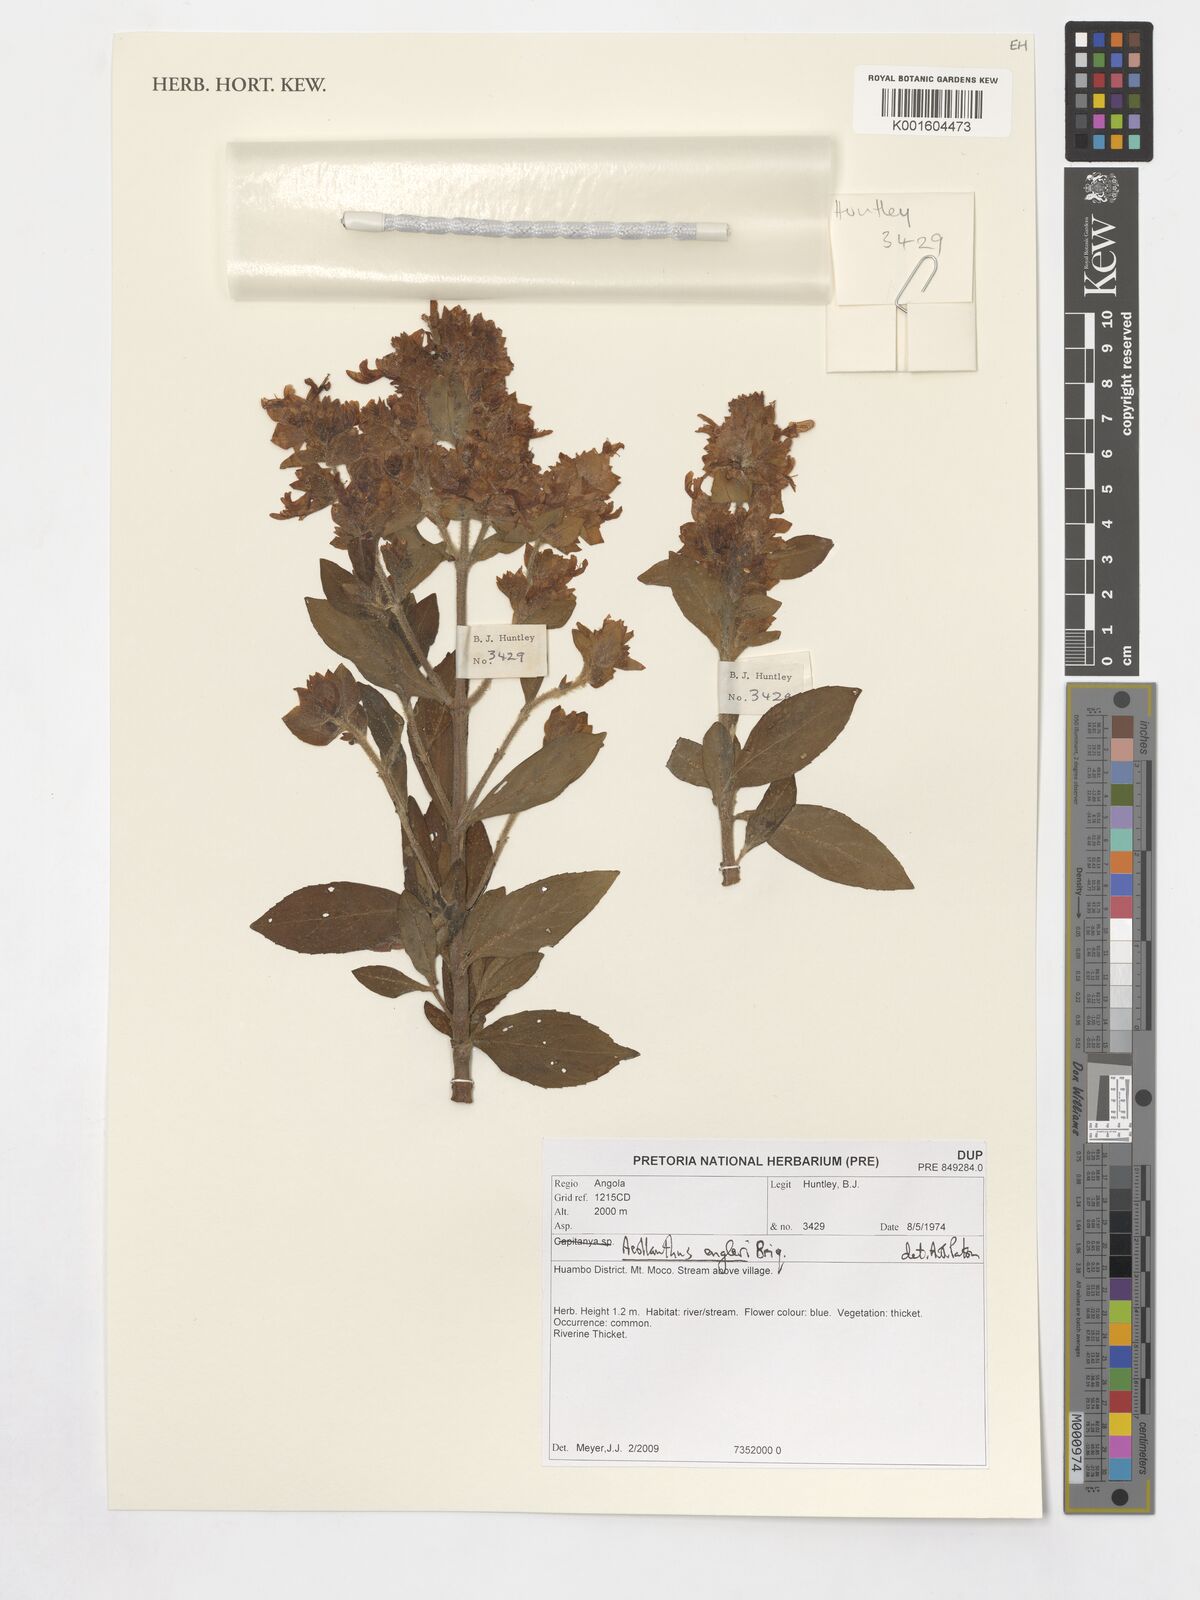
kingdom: Plantae
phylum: Tracheophyta
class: Magnoliopsida
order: Lamiales
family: Lamiaceae
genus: Aeollanthus
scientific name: Aeollanthus engleri
